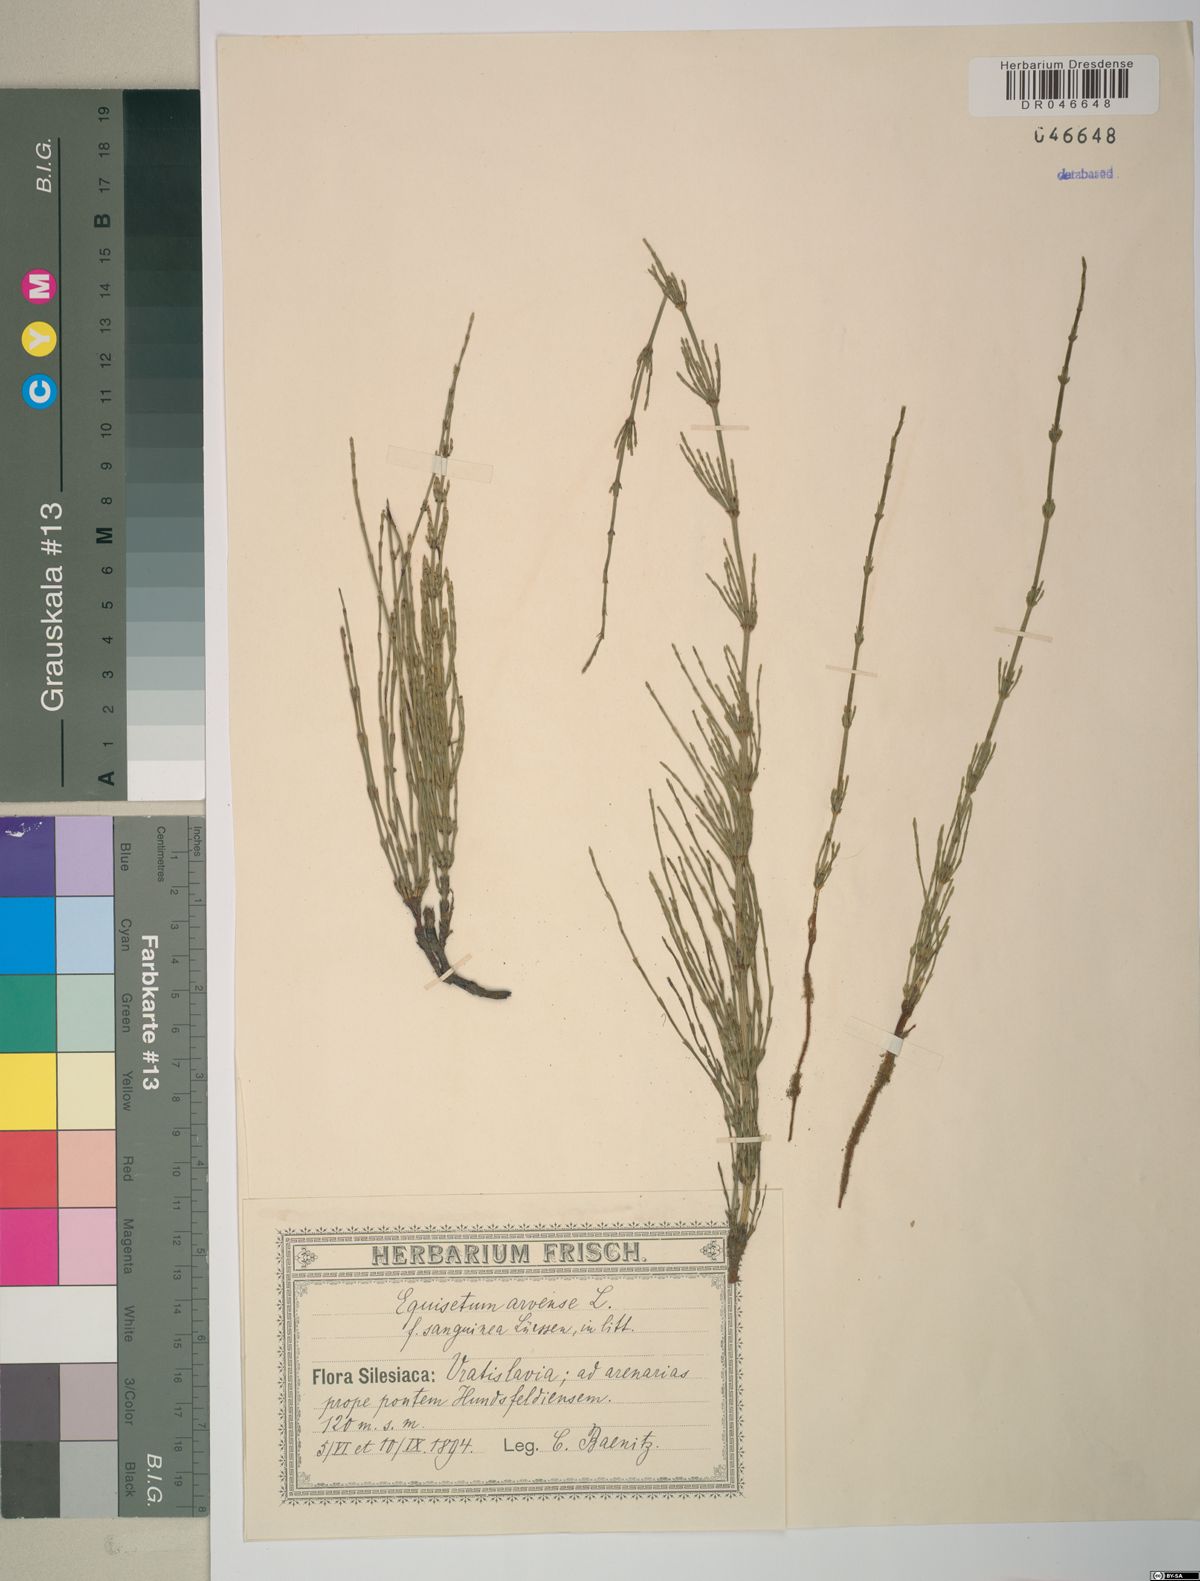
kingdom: Plantae
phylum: Tracheophyta
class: Polypodiopsida
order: Equisetales
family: Equisetaceae
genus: Equisetum
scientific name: Equisetum arvense
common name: Field horsetail
